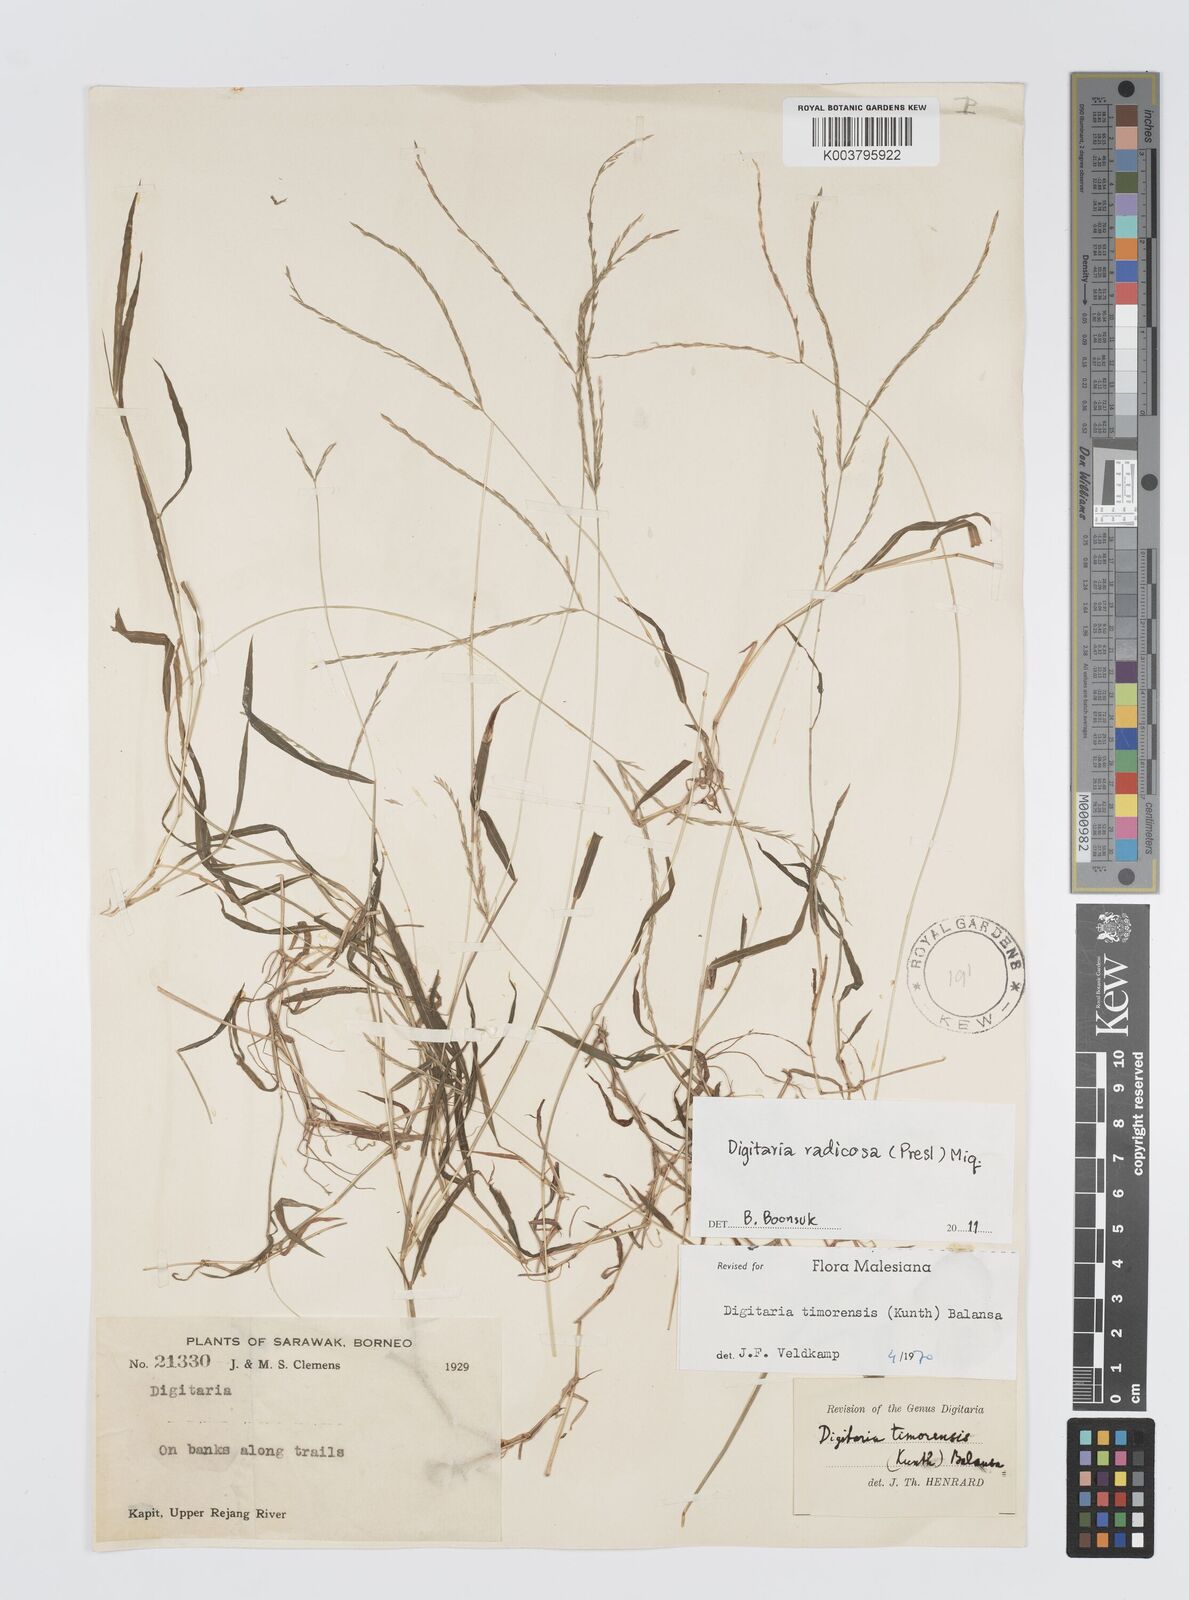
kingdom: Plantae
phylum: Tracheophyta
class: Liliopsida
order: Poales
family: Poaceae
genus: Digitaria
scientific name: Digitaria radicosa
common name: Trailing crabgrass
